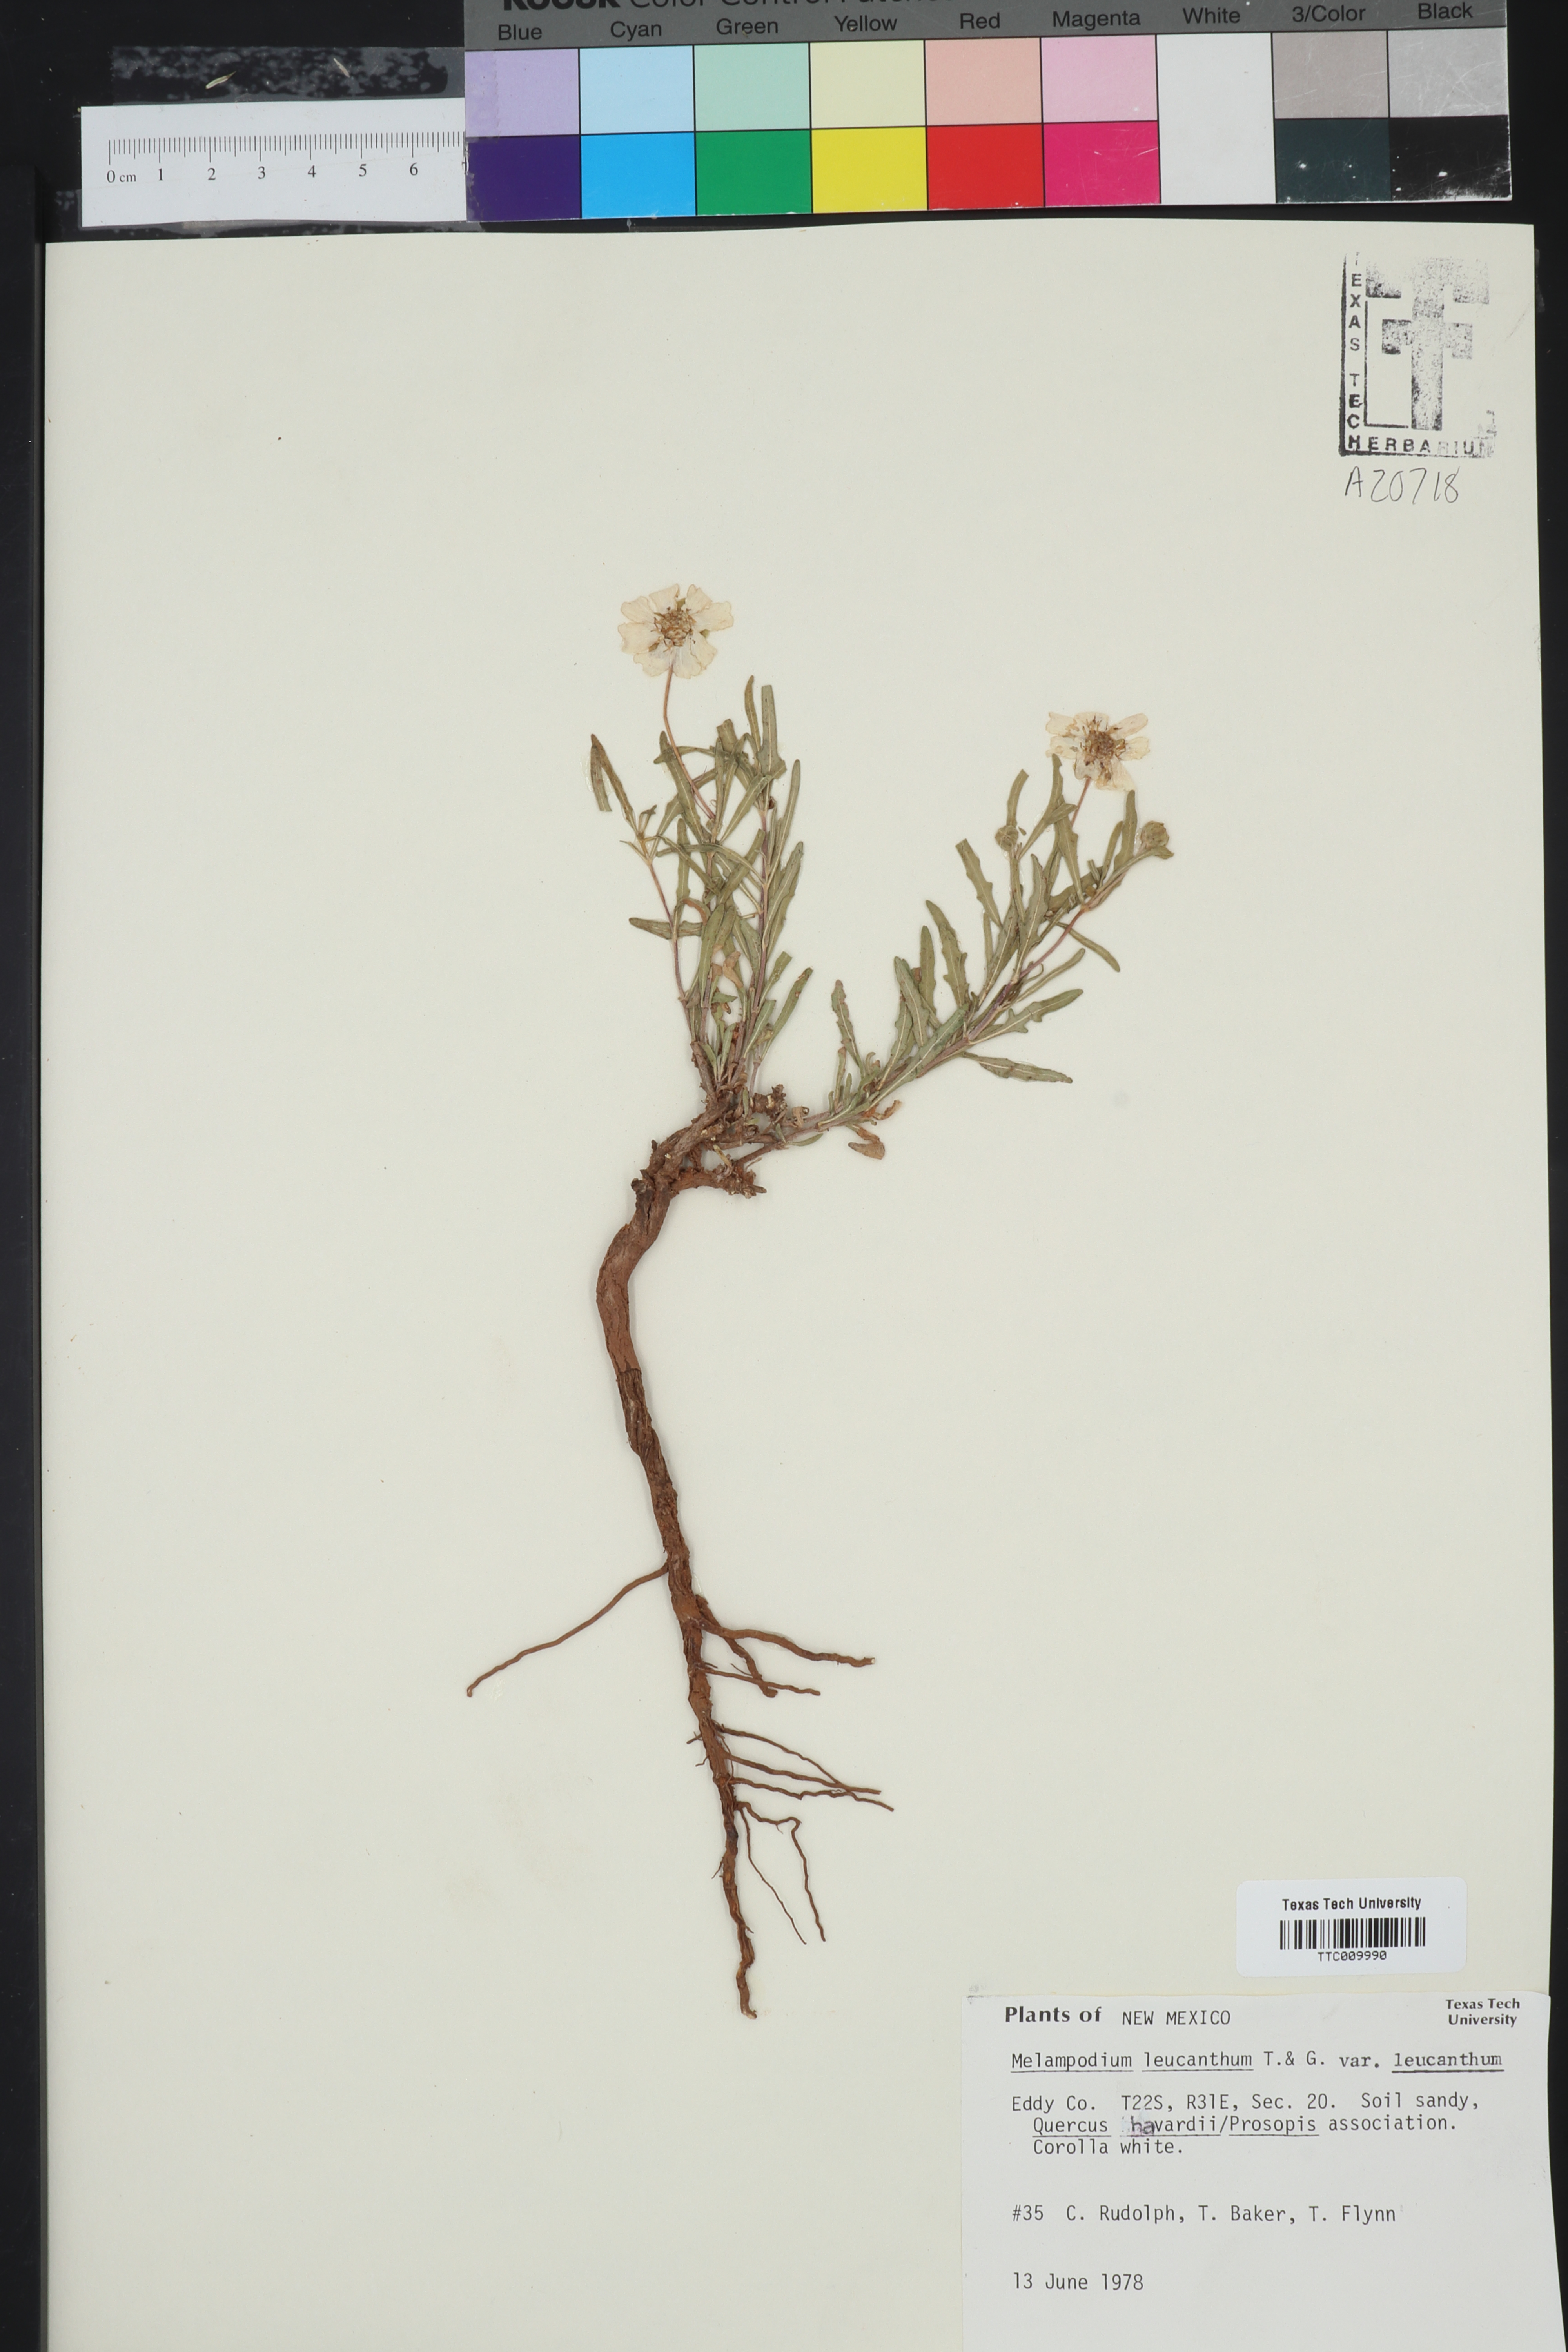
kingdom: Plantae
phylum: Tracheophyta
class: Magnoliopsida
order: Asterales
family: Asteraceae
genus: Melampodium
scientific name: Melampodium leucanthum
